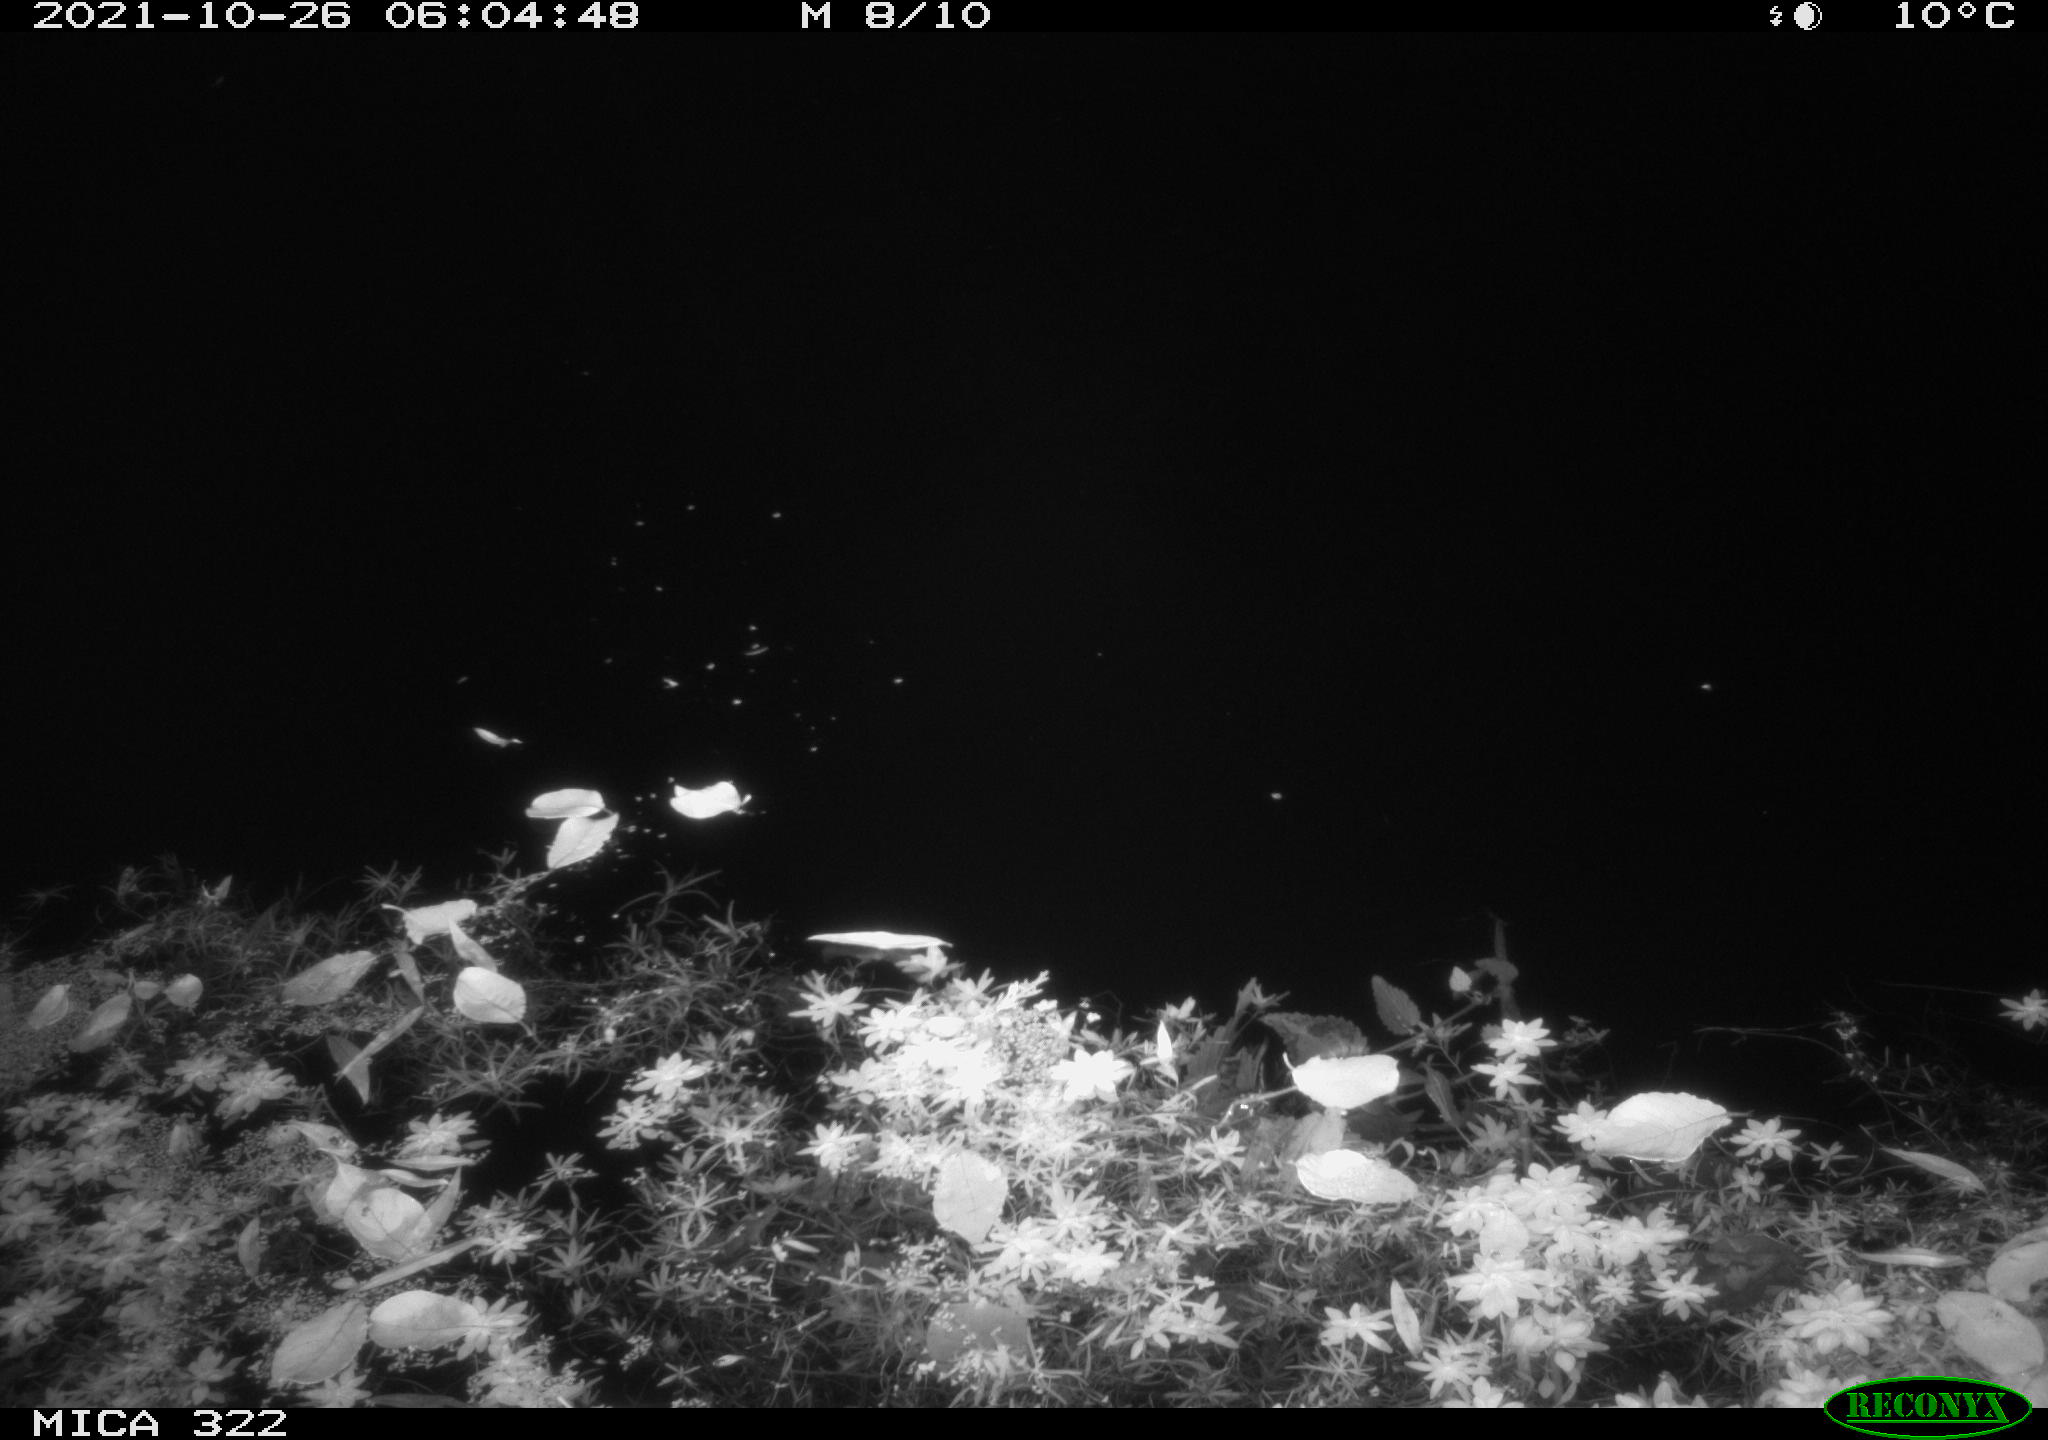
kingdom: Animalia
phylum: Chordata
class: Mammalia
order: Rodentia
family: Muridae
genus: Rattus
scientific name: Rattus norvegicus
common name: Brown rat
